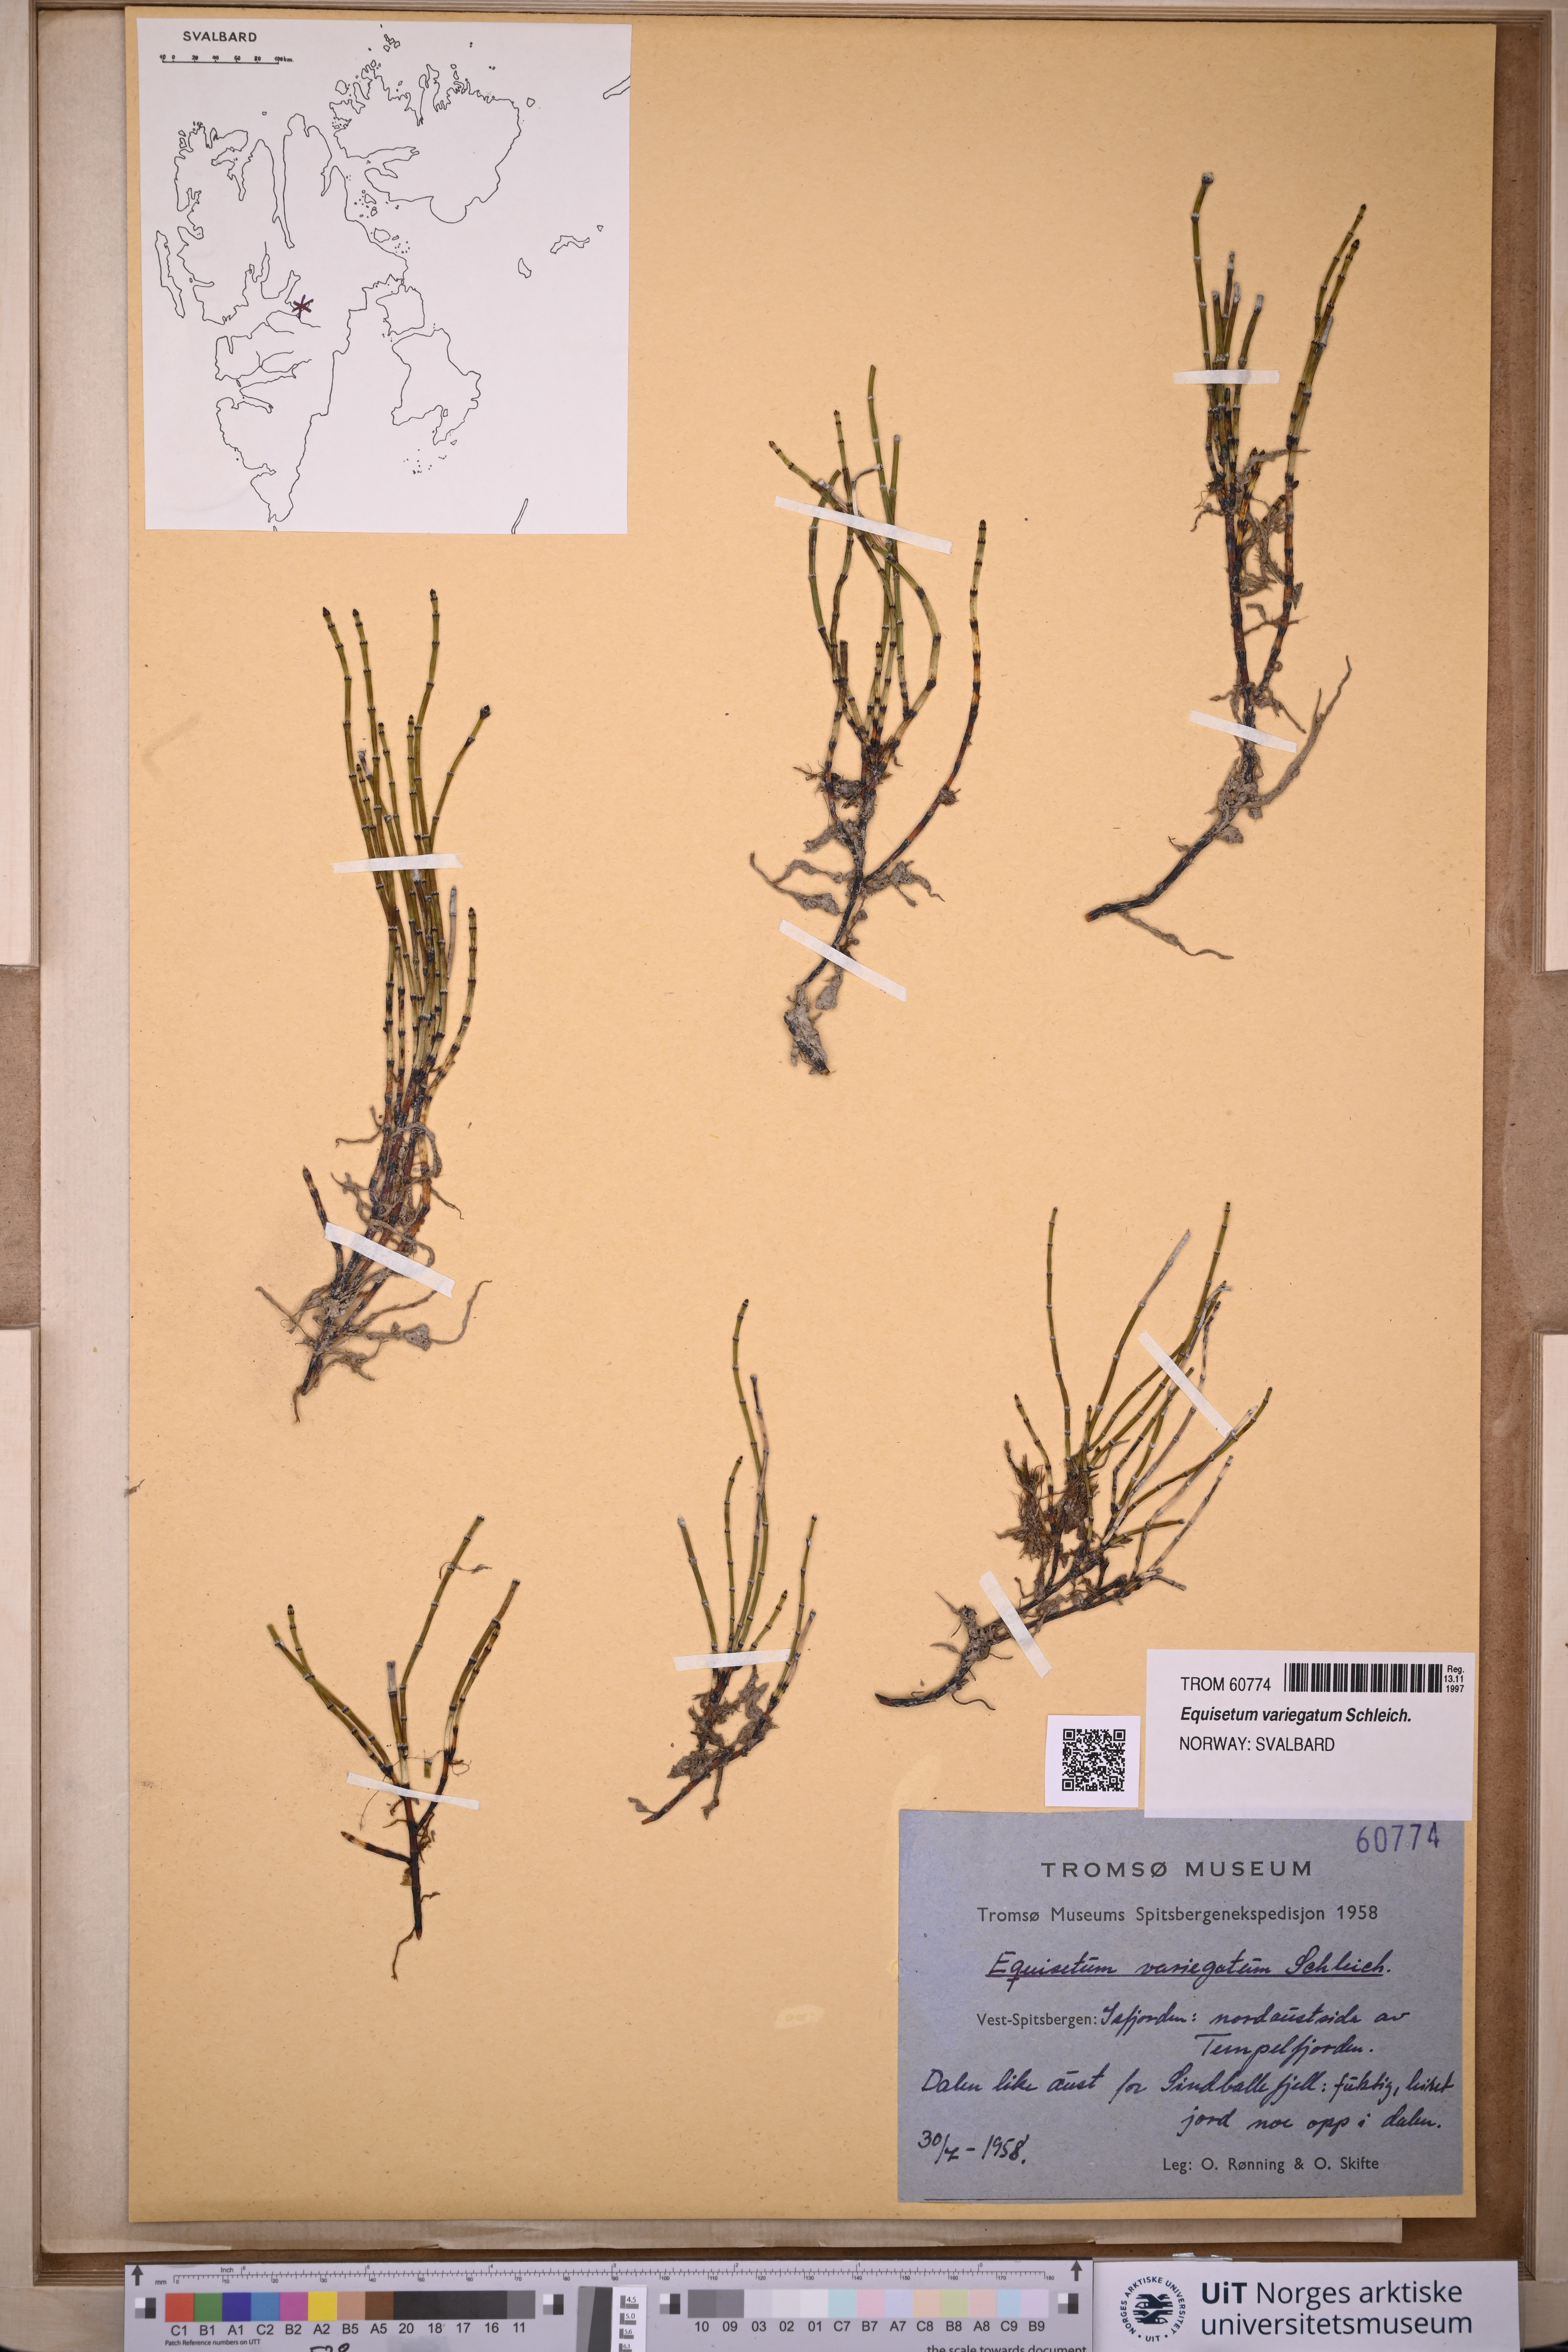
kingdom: Plantae
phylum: Tracheophyta
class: Polypodiopsida
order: Equisetales
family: Equisetaceae
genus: Equisetum
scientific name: Equisetum variegatum
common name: Variegated horsetail
